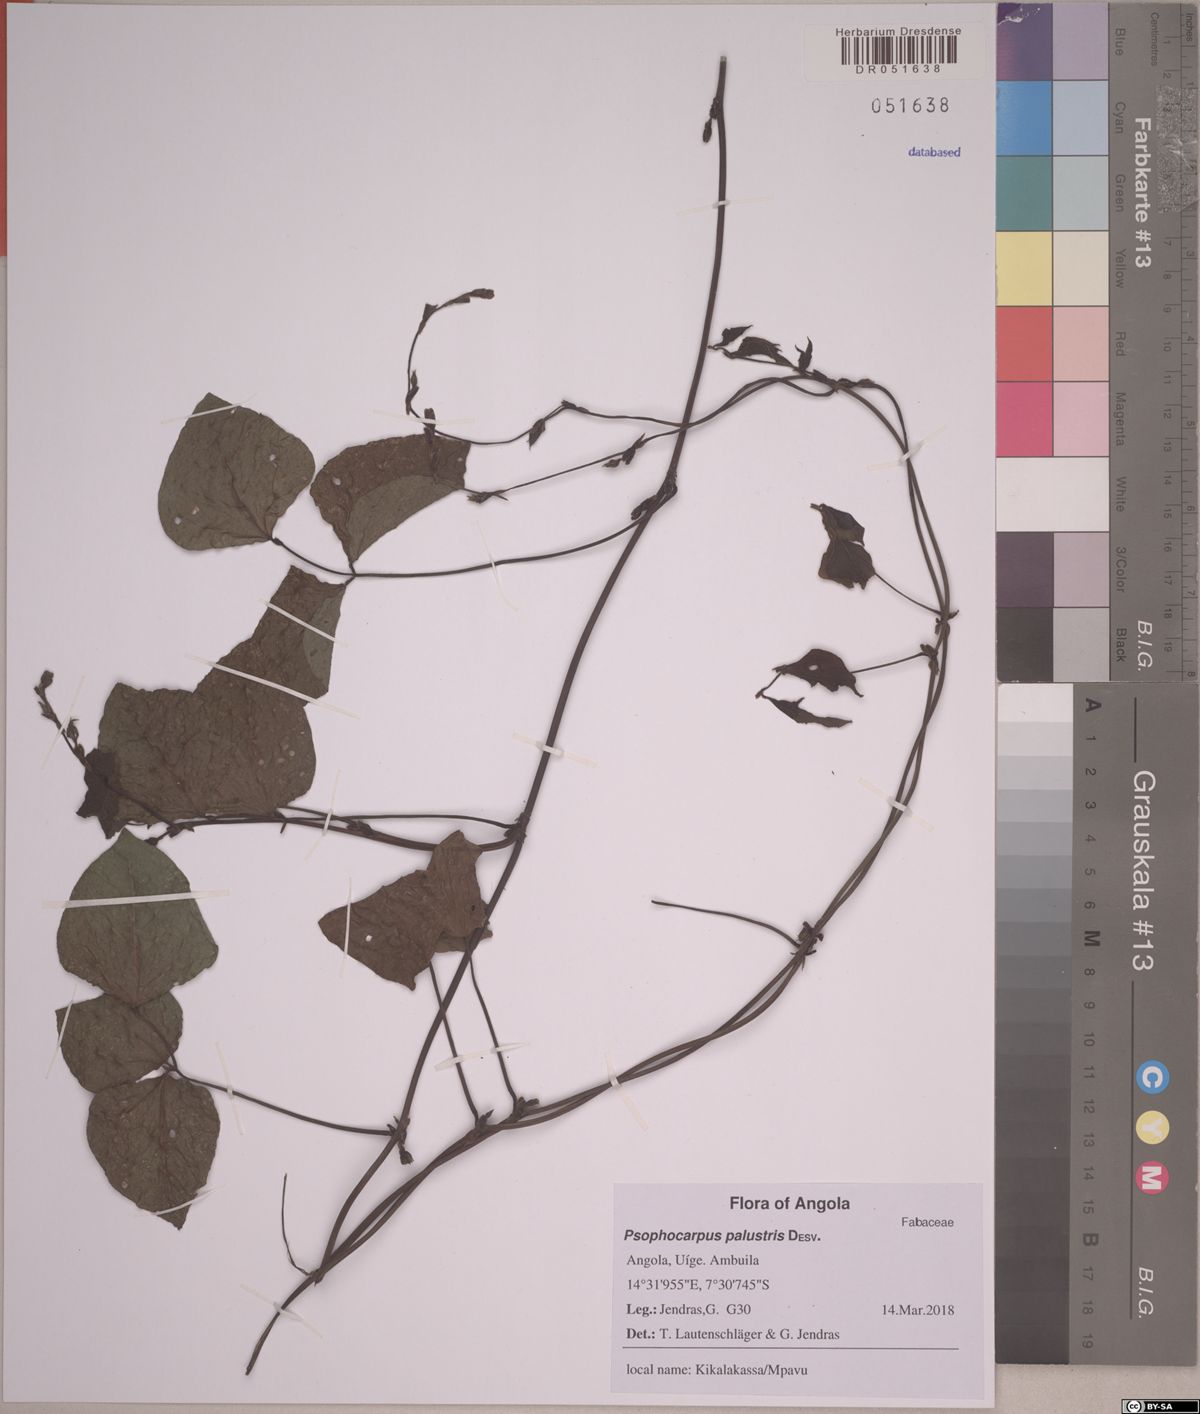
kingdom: Plantae
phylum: Tracheophyta
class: Magnoliopsida
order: Fabales
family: Fabaceae
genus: Psophocarpus
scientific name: Psophocarpus palustris
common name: African winged-bean
